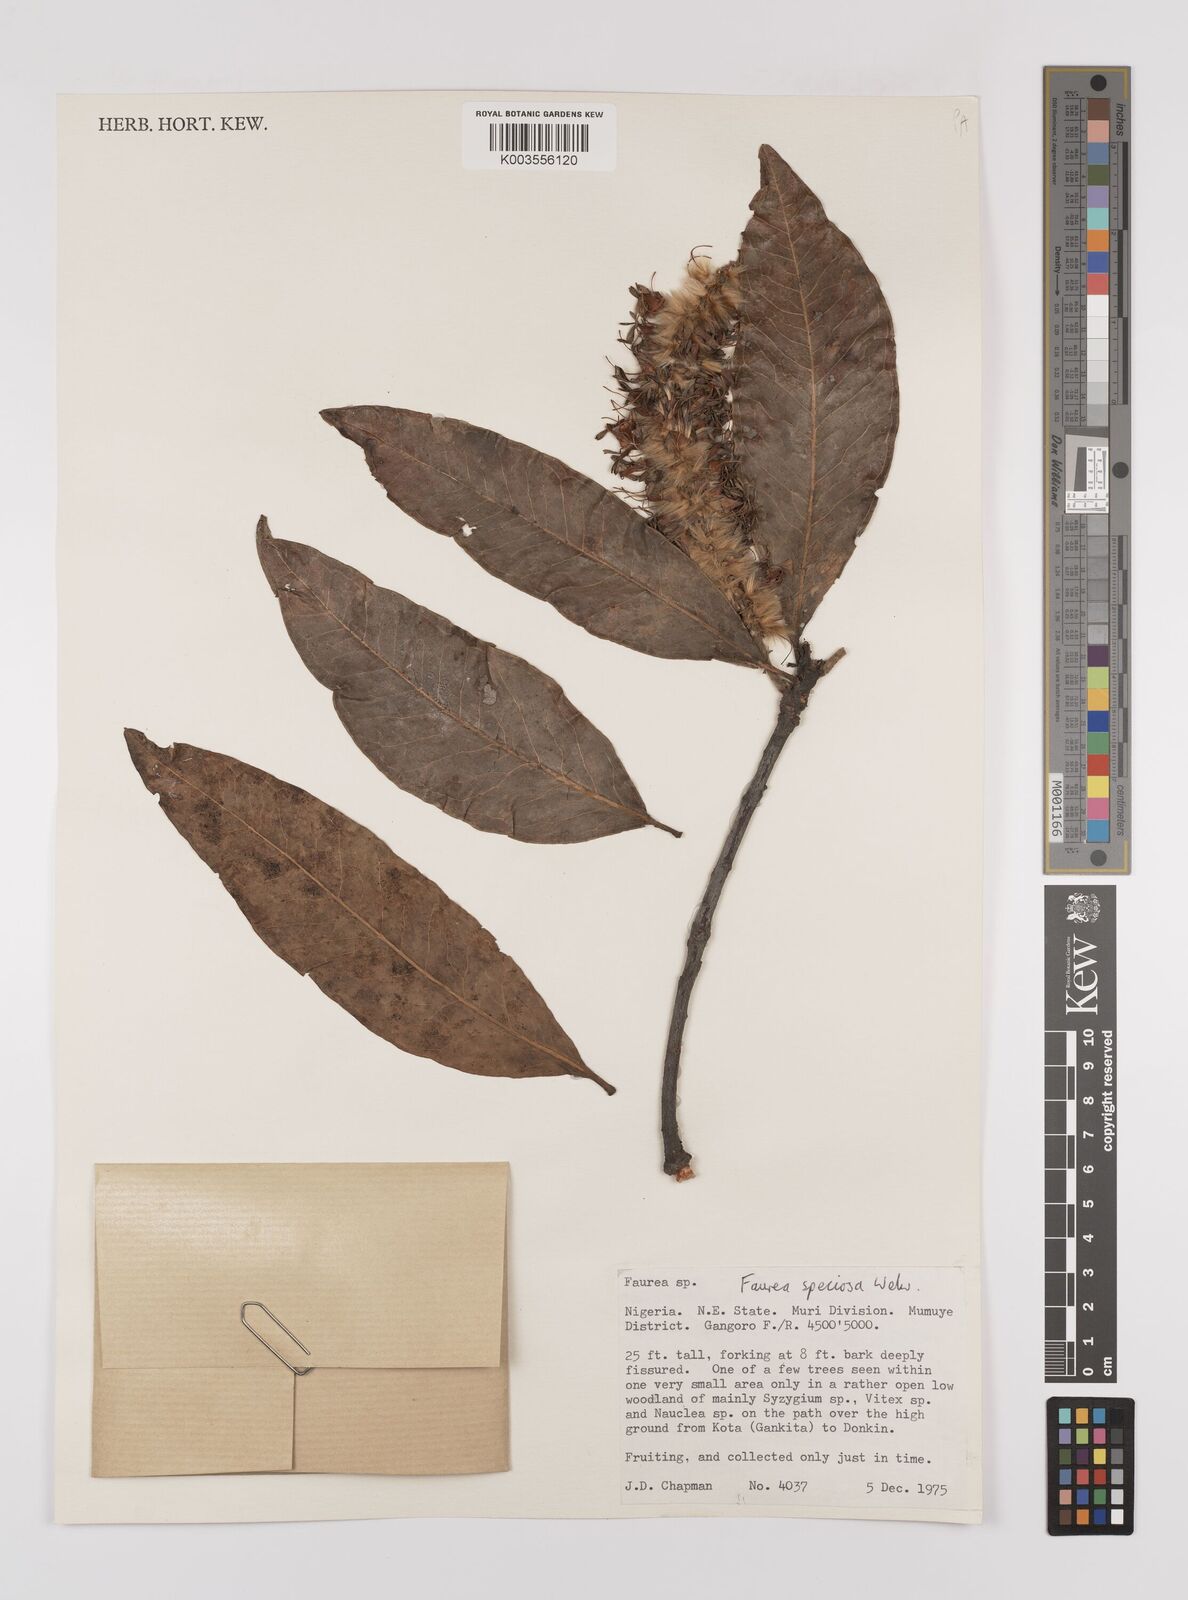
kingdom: Plantae
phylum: Tracheophyta
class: Magnoliopsida
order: Proteales
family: Proteaceae
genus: Faurea
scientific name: Faurea rochetiana
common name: Broad-leaved beech
